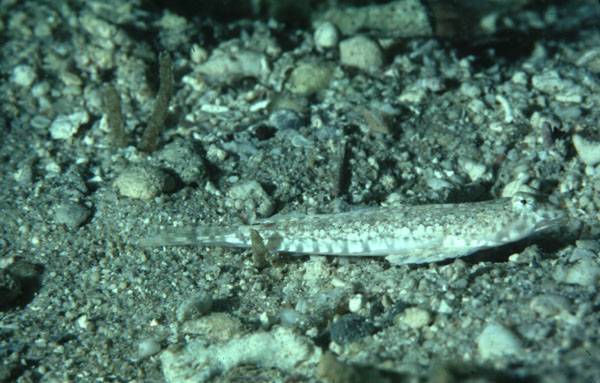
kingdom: Animalia
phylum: Chordata
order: Perciformes
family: Callionymidae
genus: Diplogrammus
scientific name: Diplogrammus
